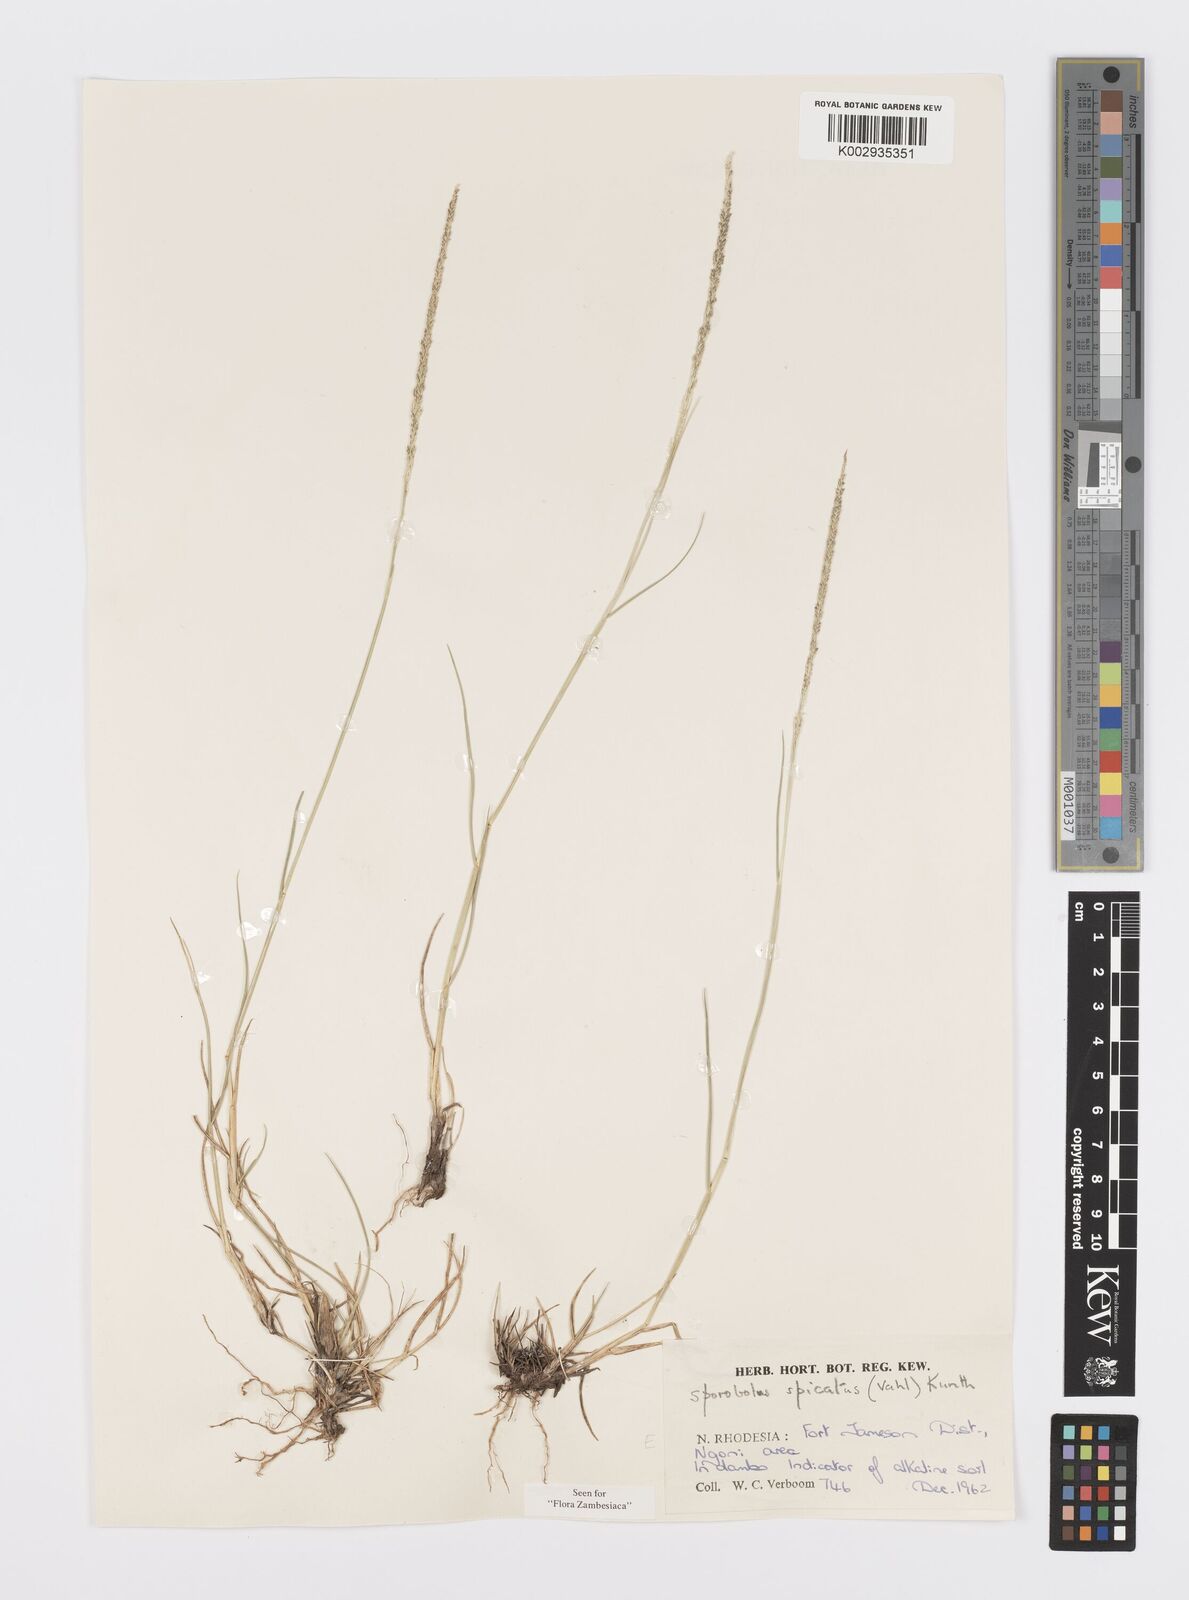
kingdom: Plantae
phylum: Tracheophyta
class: Liliopsida
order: Poales
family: Poaceae
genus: Sporobolus
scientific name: Sporobolus spicatus
